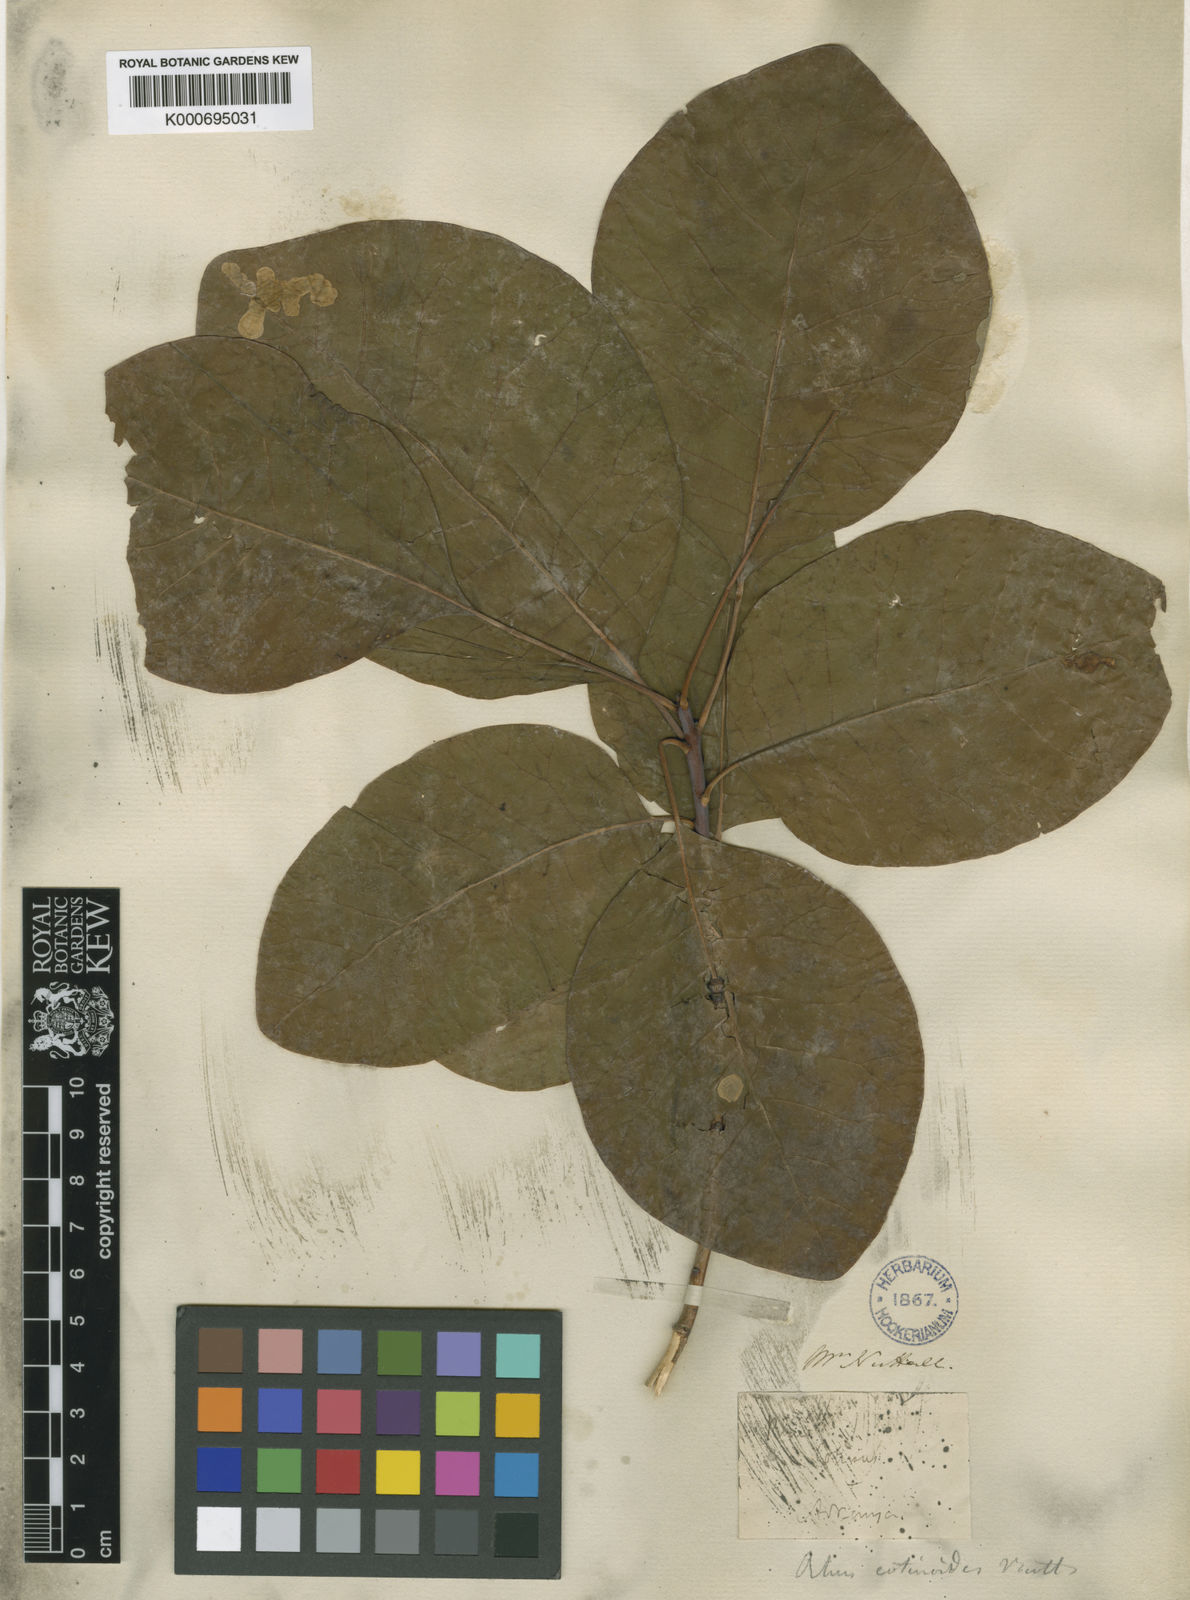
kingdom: Plantae
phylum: Tracheophyta
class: Magnoliopsida
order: Sapindales
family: Anacardiaceae
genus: Cotinus
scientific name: Cotinus obovatus
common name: Chittamwood
